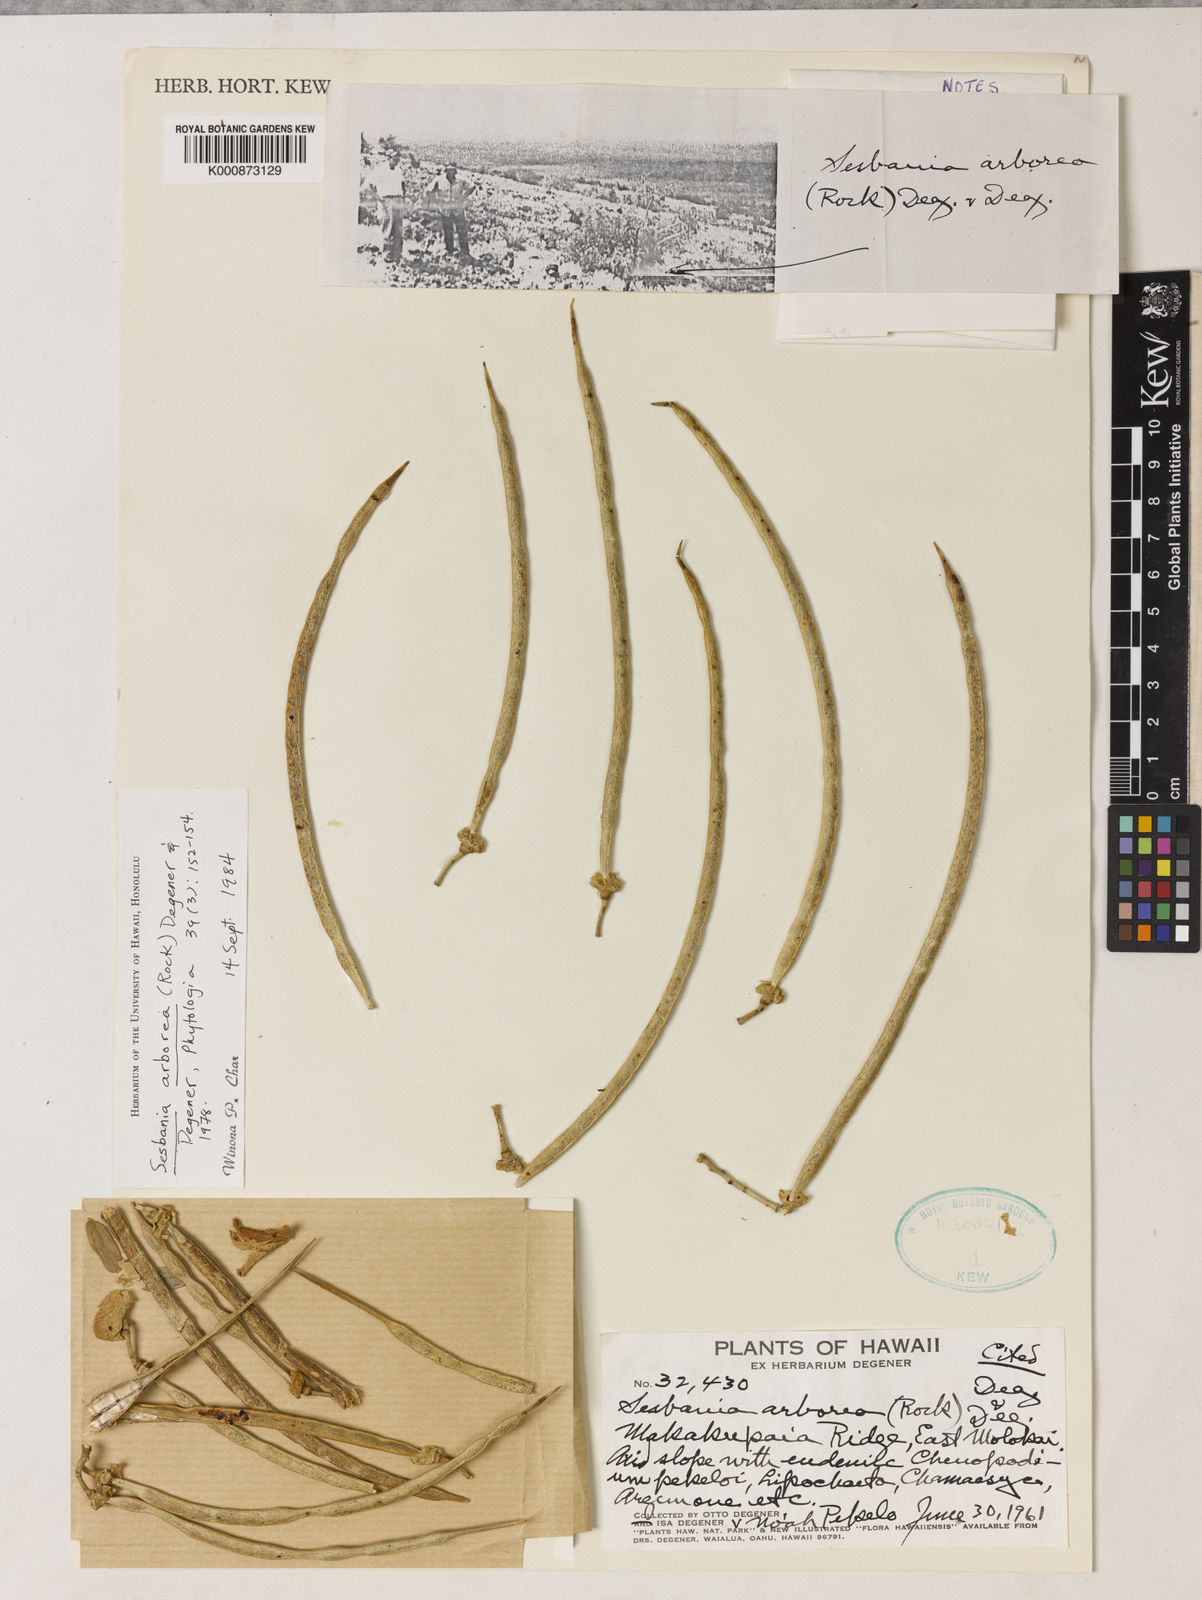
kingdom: Plantae
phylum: Tracheophyta
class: Magnoliopsida
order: Fabales
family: Fabaceae
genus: Sesbania
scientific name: Sesbania
